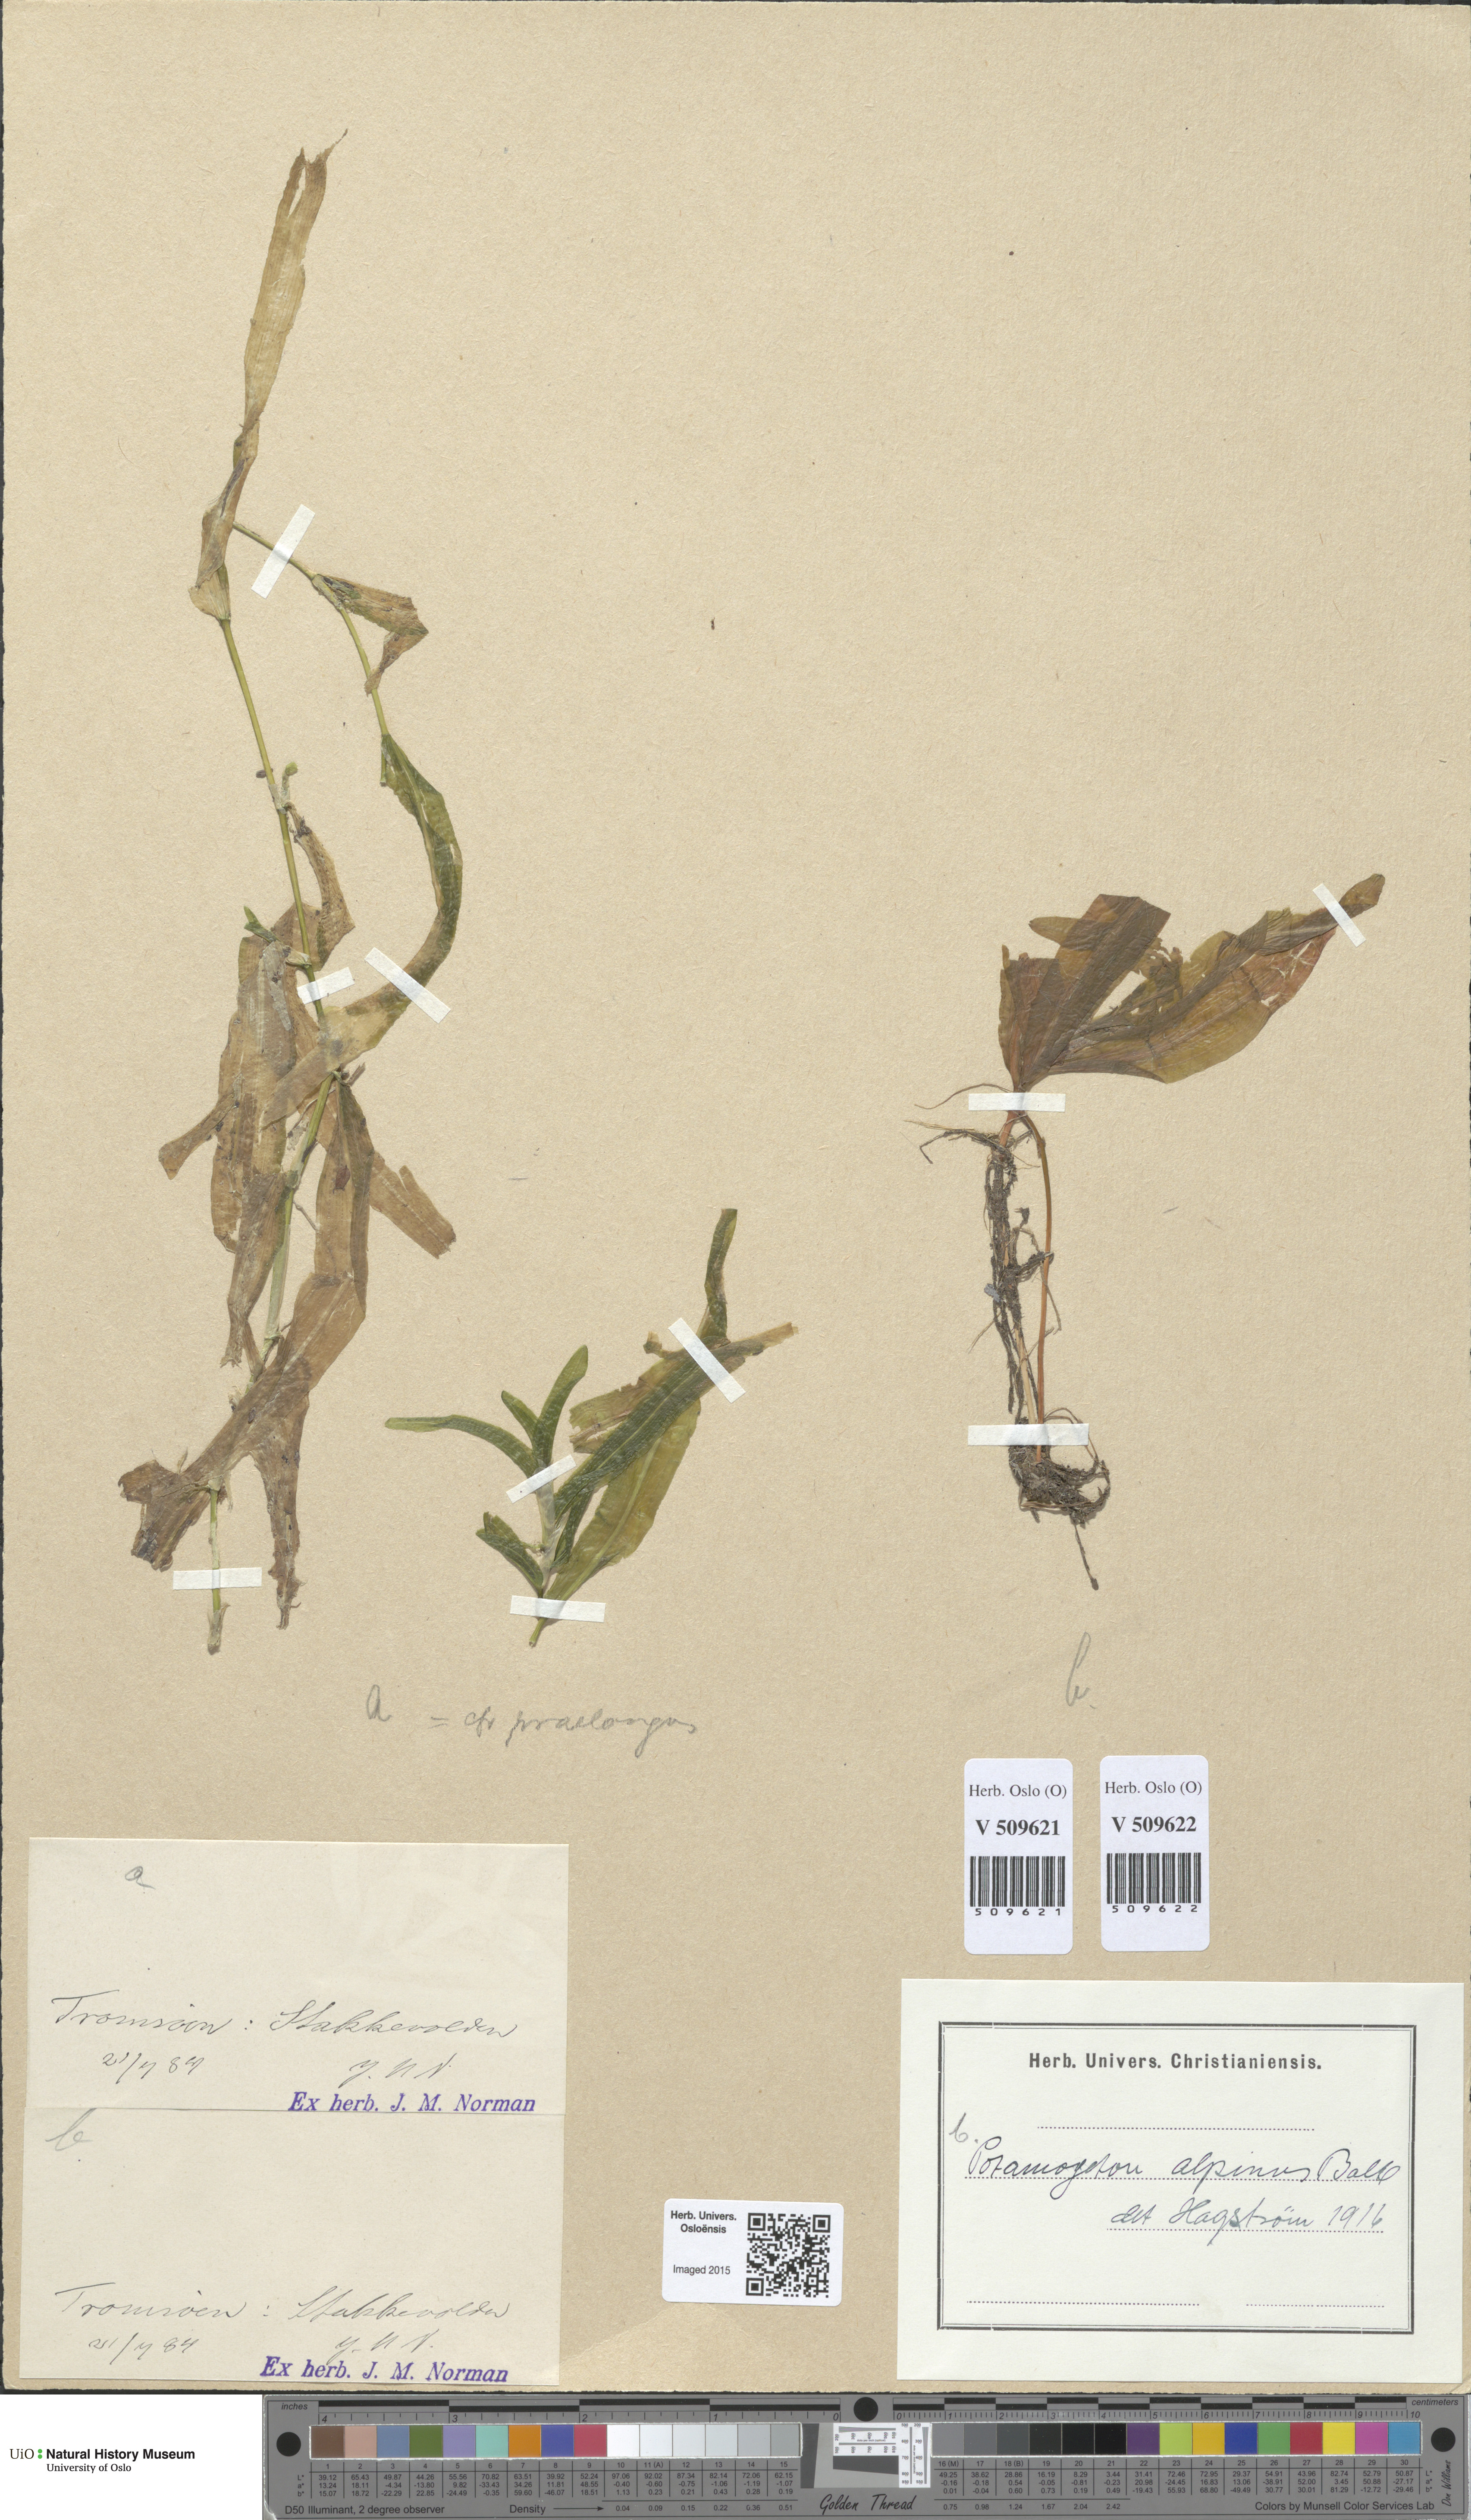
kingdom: Plantae
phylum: Tracheophyta
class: Liliopsida
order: Alismatales
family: Potamogetonaceae
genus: Potamogeton
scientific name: Potamogeton praelongus
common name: Long-stalked pondweed
